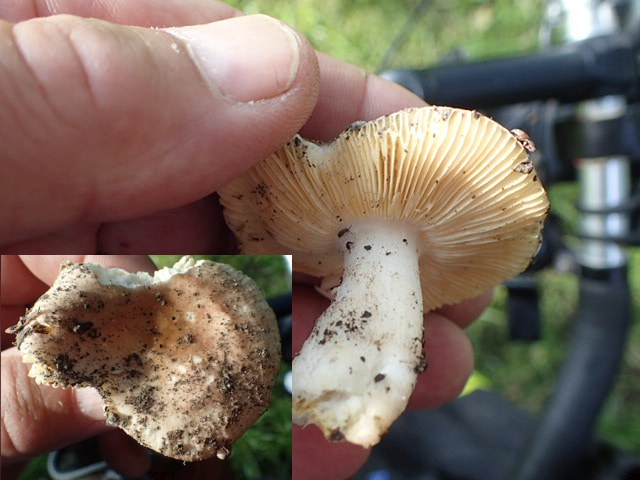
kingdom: Fungi
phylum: Basidiomycota
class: Agaricomycetes
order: Russulales
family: Russulaceae
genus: Russula
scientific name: Russula odorata
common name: duft-skørhat
